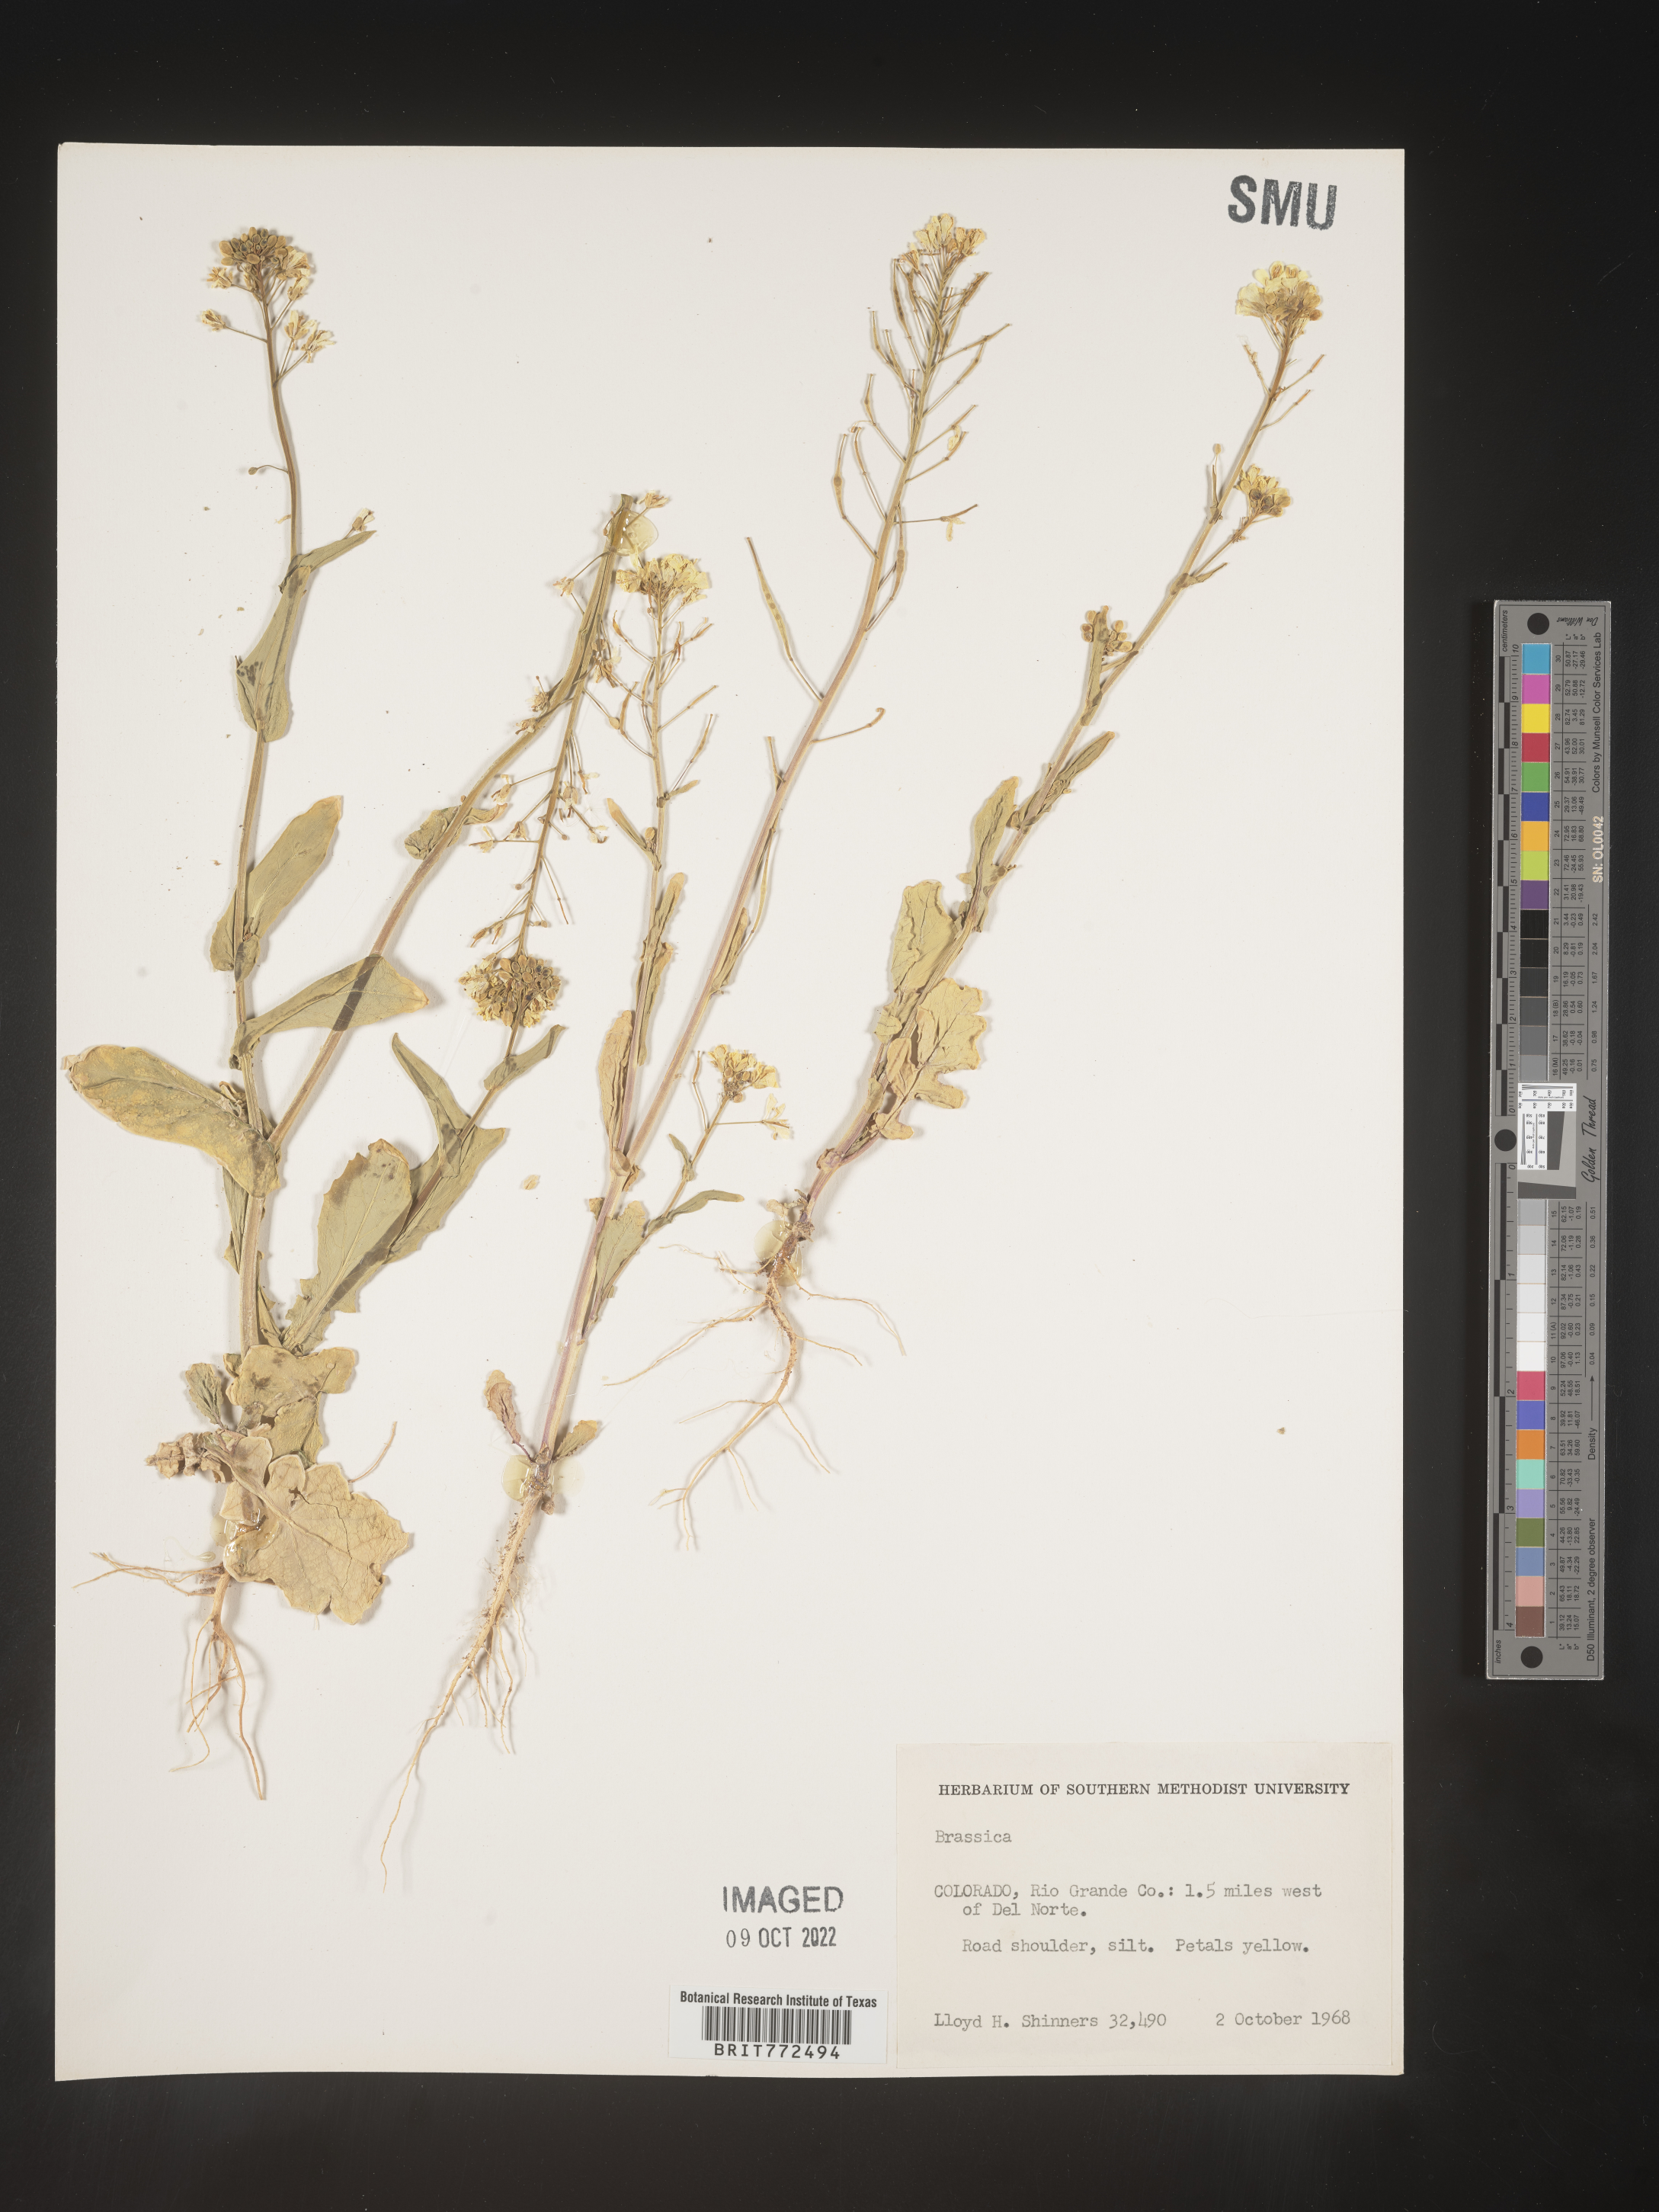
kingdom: Plantae
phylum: Tracheophyta
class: Magnoliopsida
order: Brassicales
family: Brassicaceae
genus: Brassica
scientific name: Brassica
